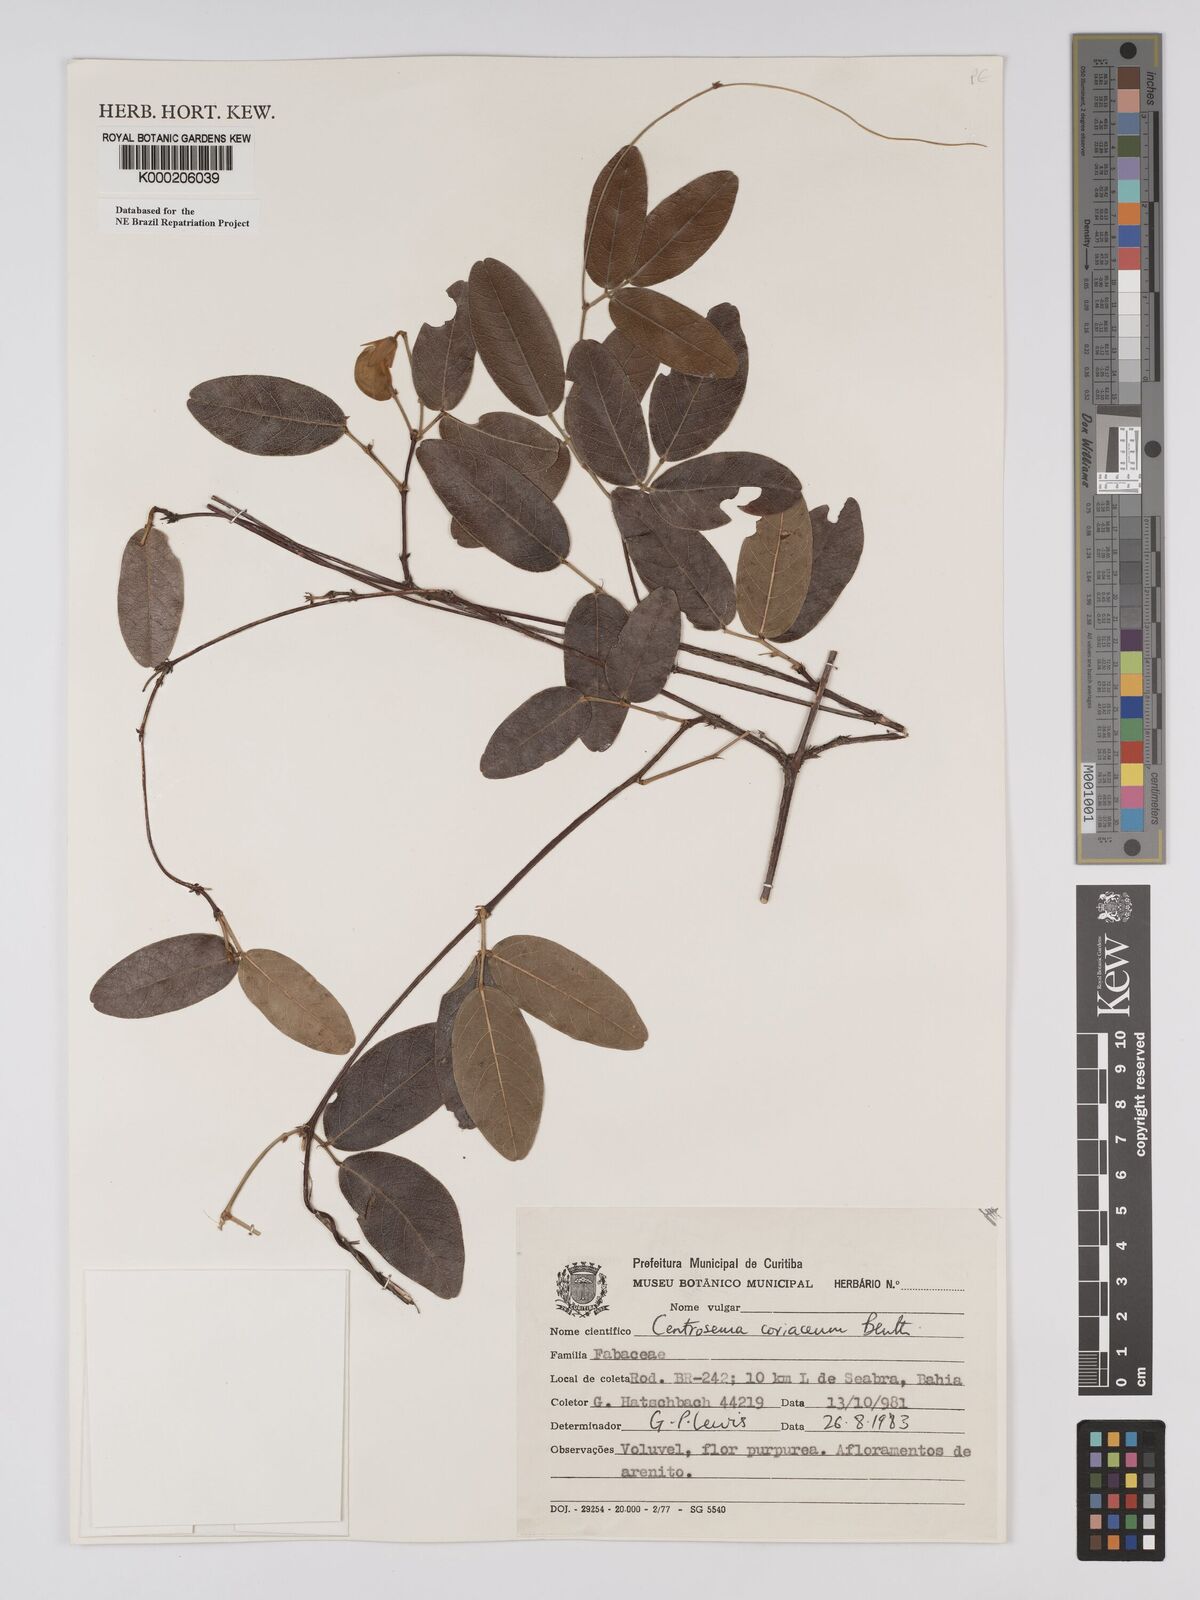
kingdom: Plantae
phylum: Tracheophyta
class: Magnoliopsida
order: Fabales
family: Fabaceae
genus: Centrosema
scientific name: Centrosema coriaceum
